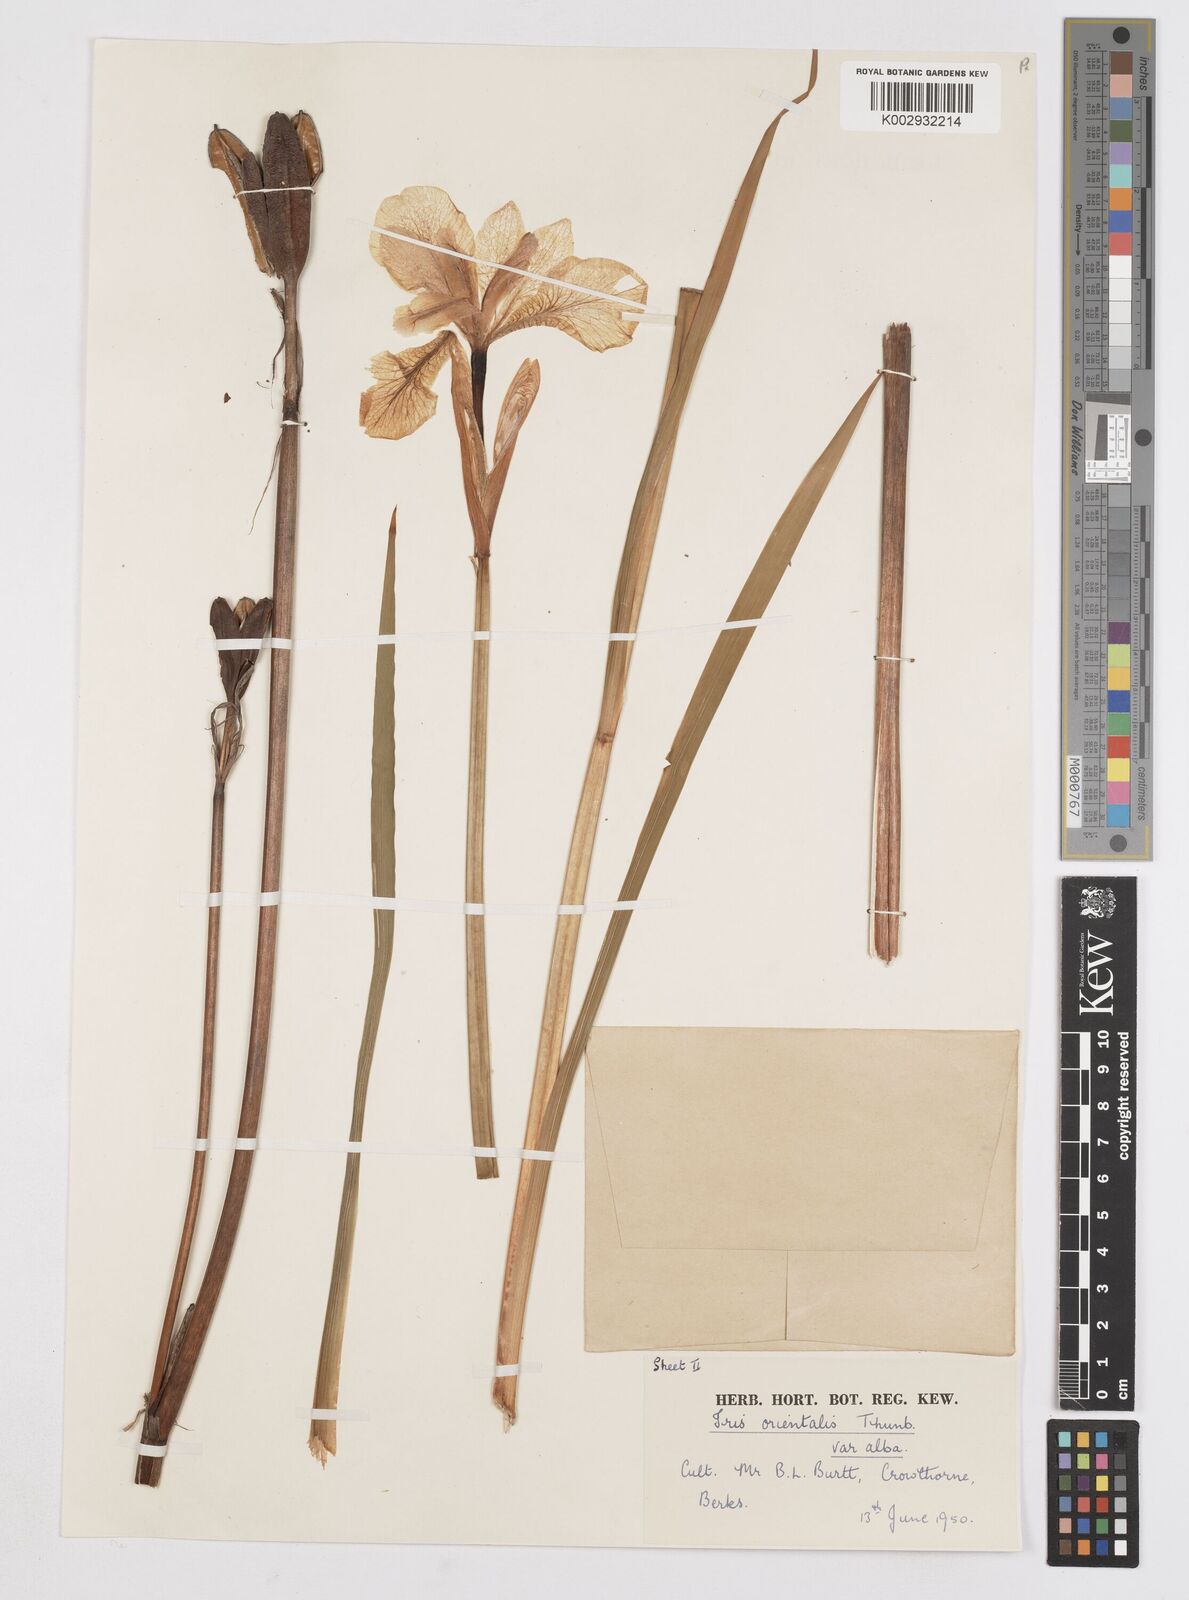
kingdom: Plantae
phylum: Tracheophyta
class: Liliopsida
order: Asparagales
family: Iridaceae
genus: Iris
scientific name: Iris sanguinea
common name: Blood iris
